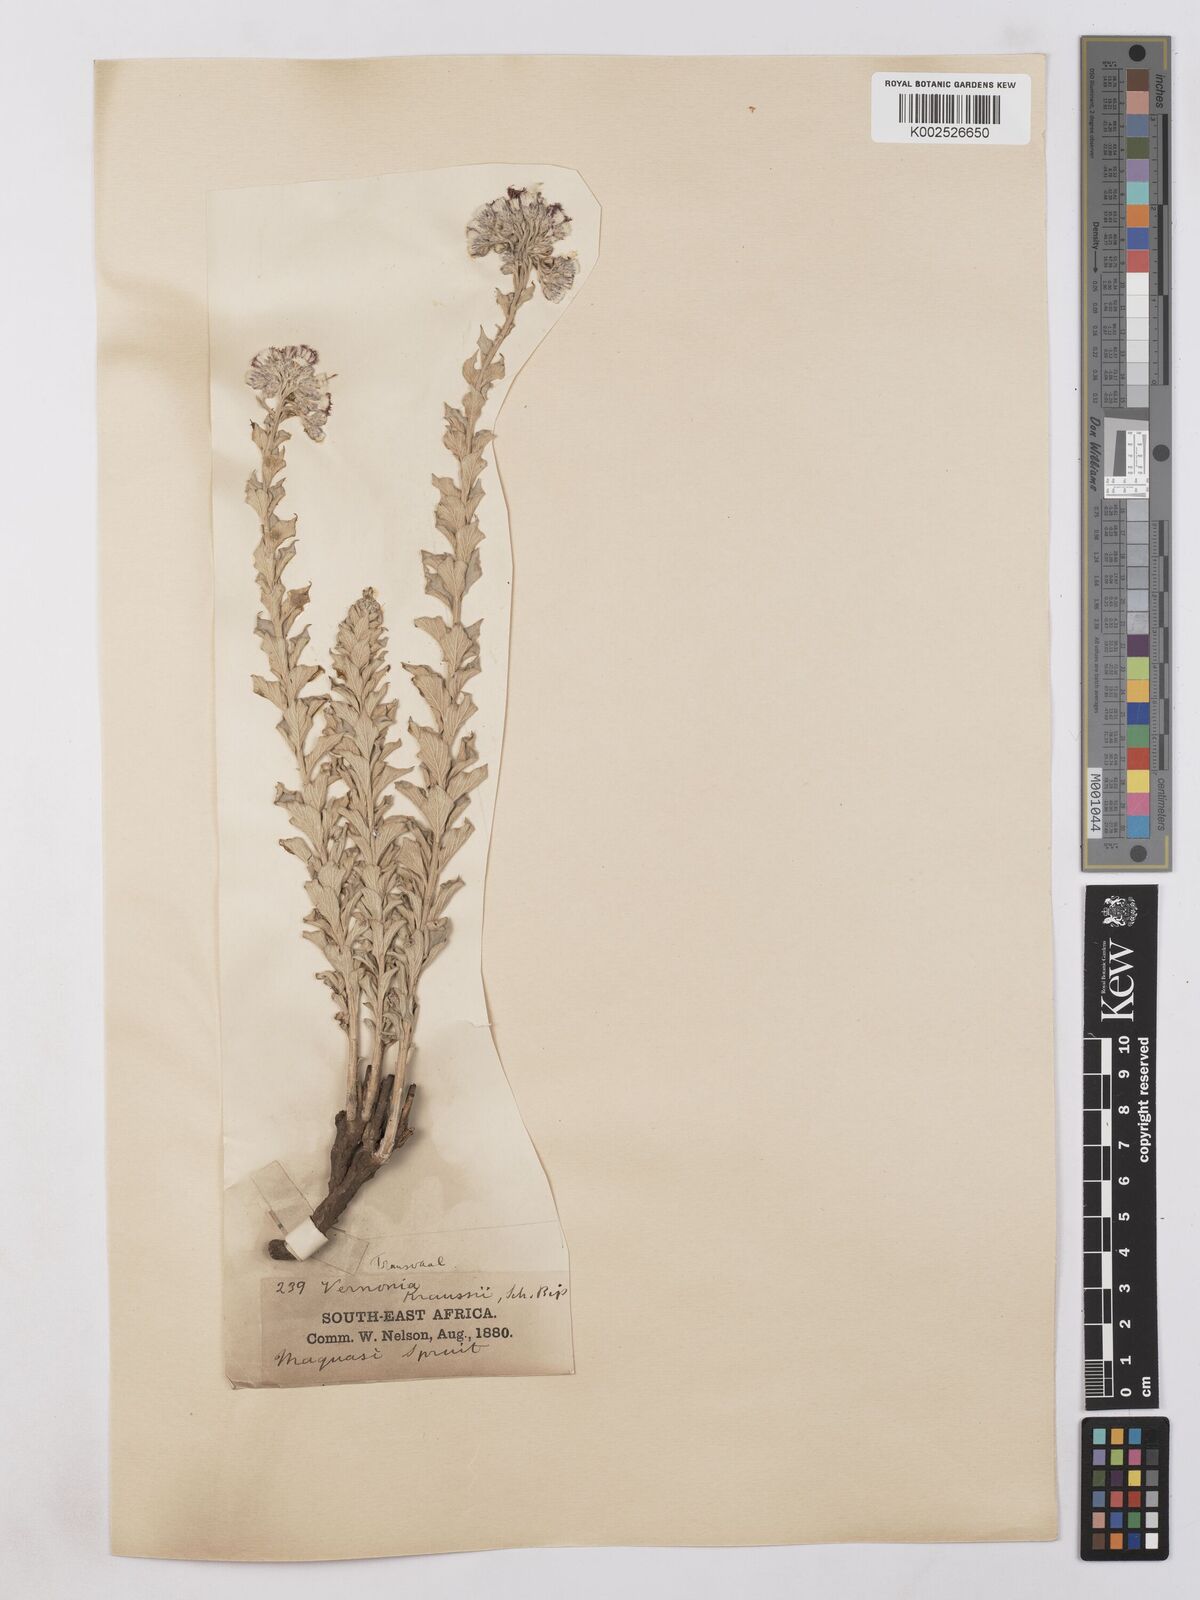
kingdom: Plantae
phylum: Tracheophyta
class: Magnoliopsida
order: Asterales
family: Asteraceae
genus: Hilliardiella
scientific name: Hilliardiella oligocephala
